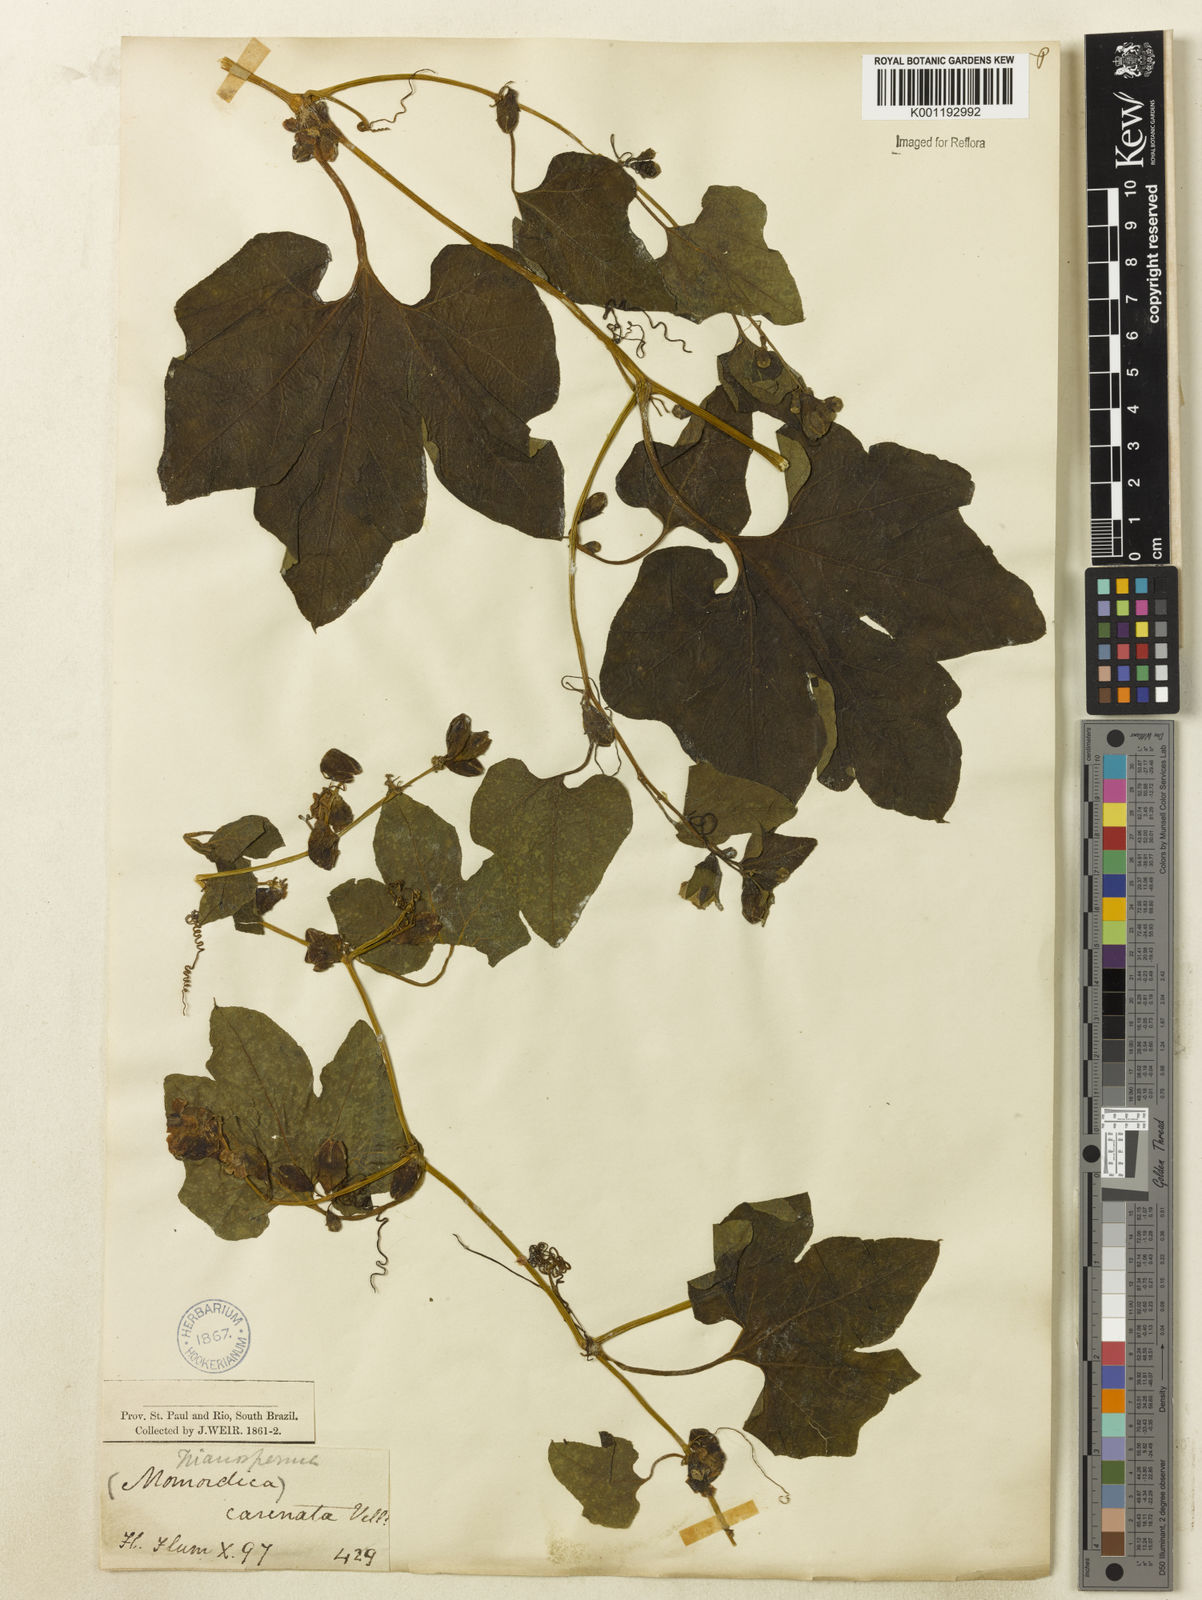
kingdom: Plantae
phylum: Tracheophyta
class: Magnoliopsida
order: Cucurbitales
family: Cucurbitaceae
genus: Cayaponia
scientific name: Cayaponia bonariensis
